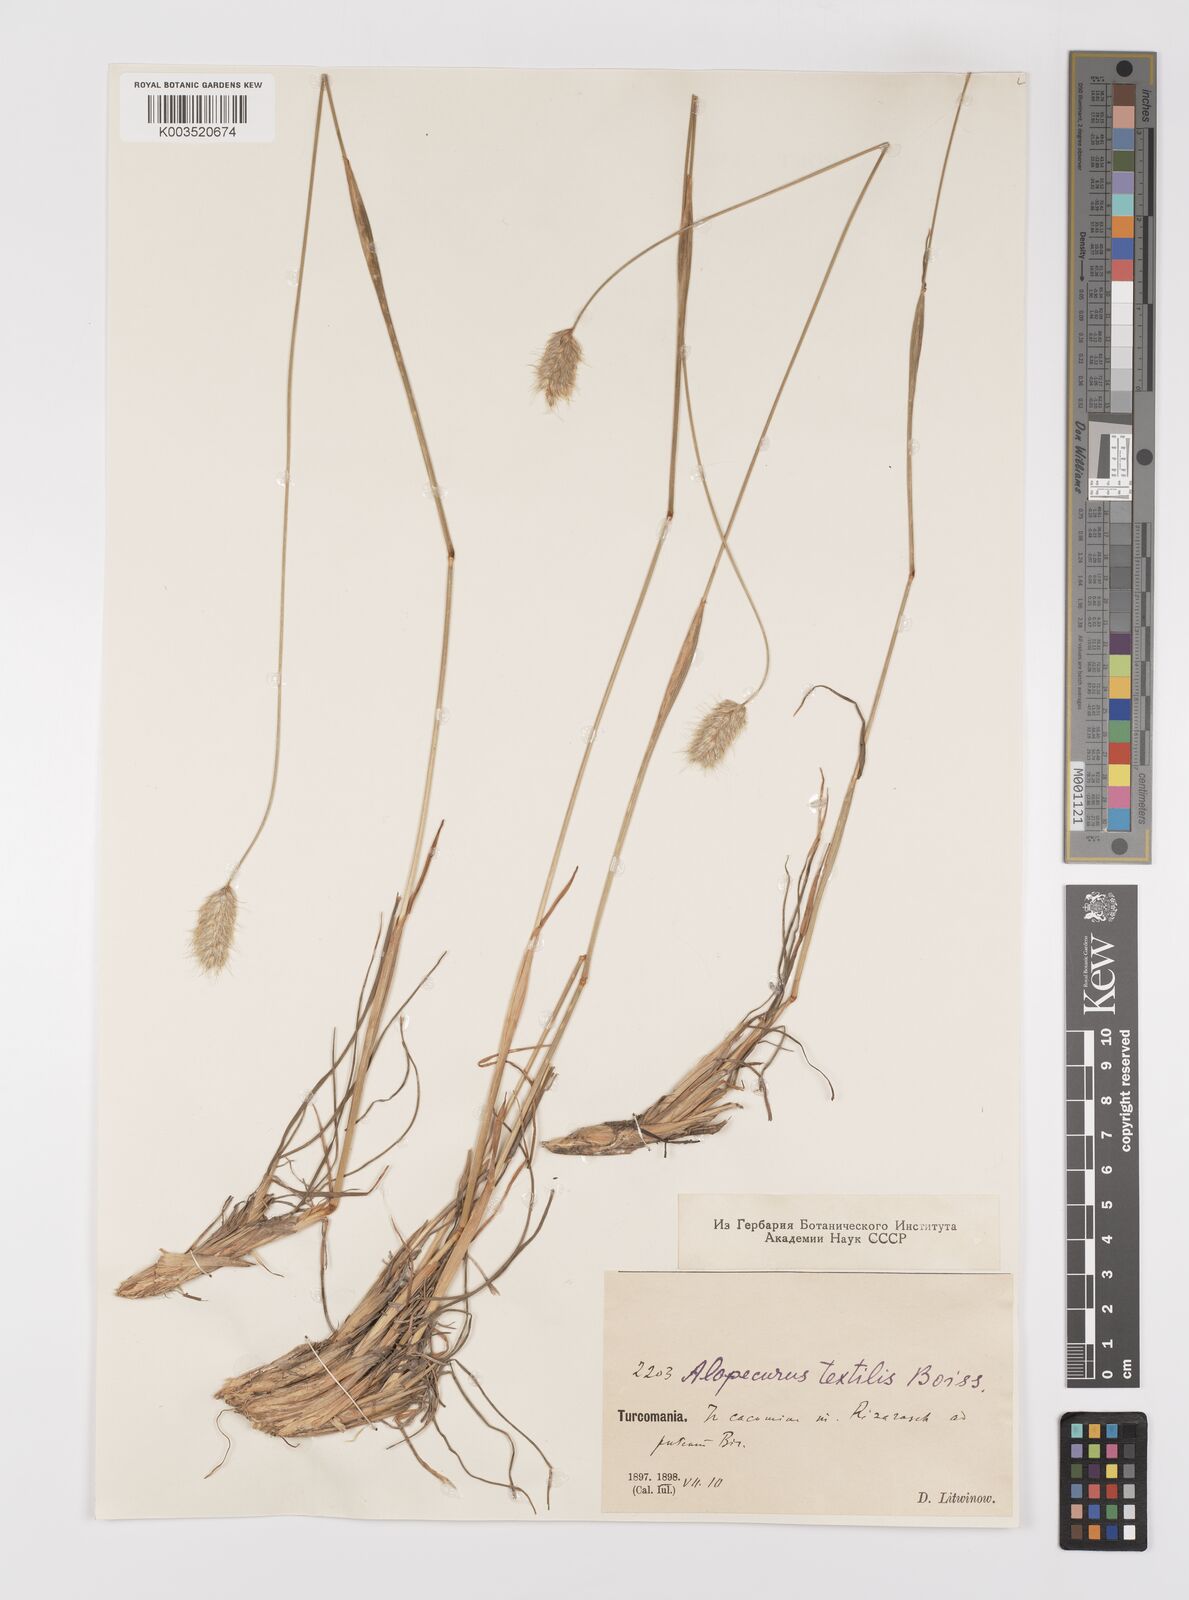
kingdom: Plantae
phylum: Tracheophyta
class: Liliopsida
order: Poales
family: Poaceae
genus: Alopecurus
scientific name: Alopecurus textilis
